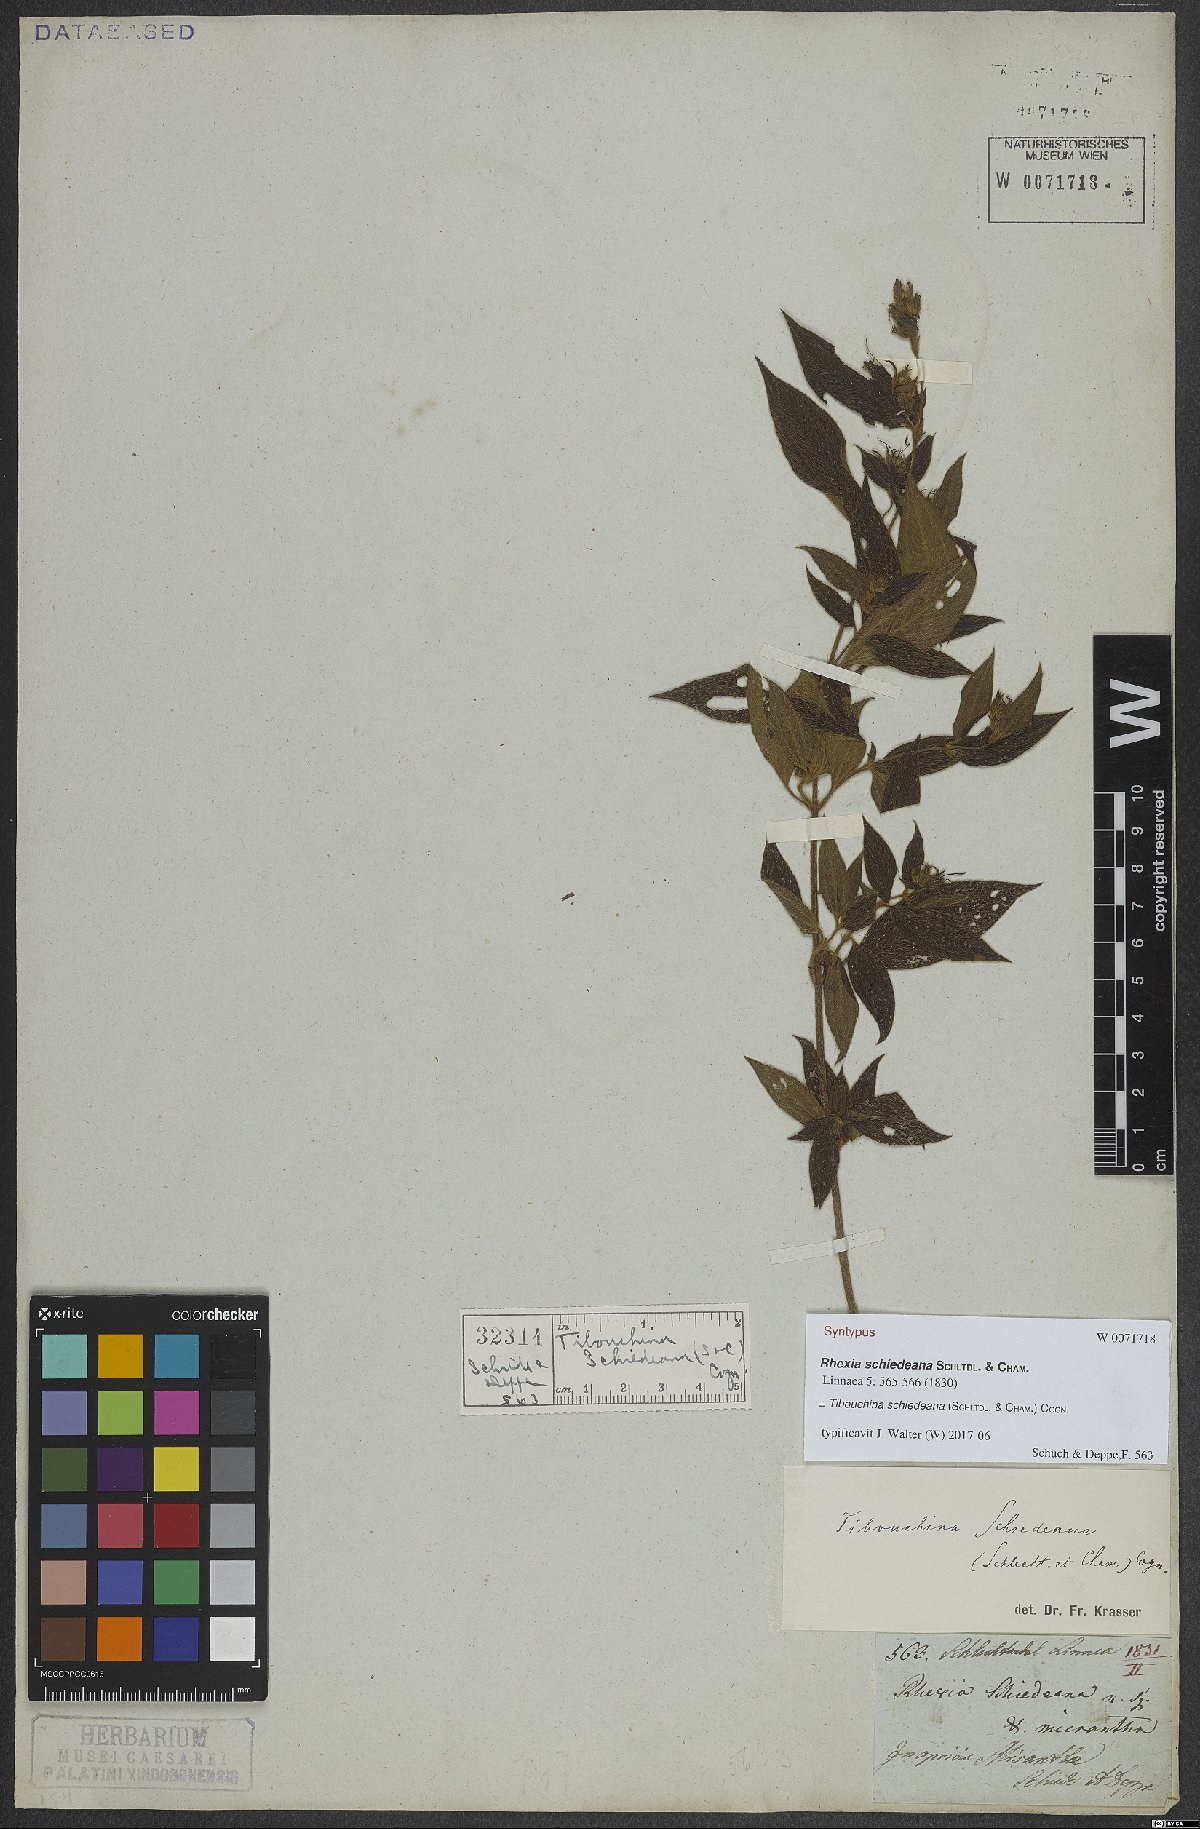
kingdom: Plantae
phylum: Tracheophyta
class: Magnoliopsida
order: Myrtales
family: Melastomataceae
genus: Chaetogastra
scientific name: Chaetogastra schiedeana
